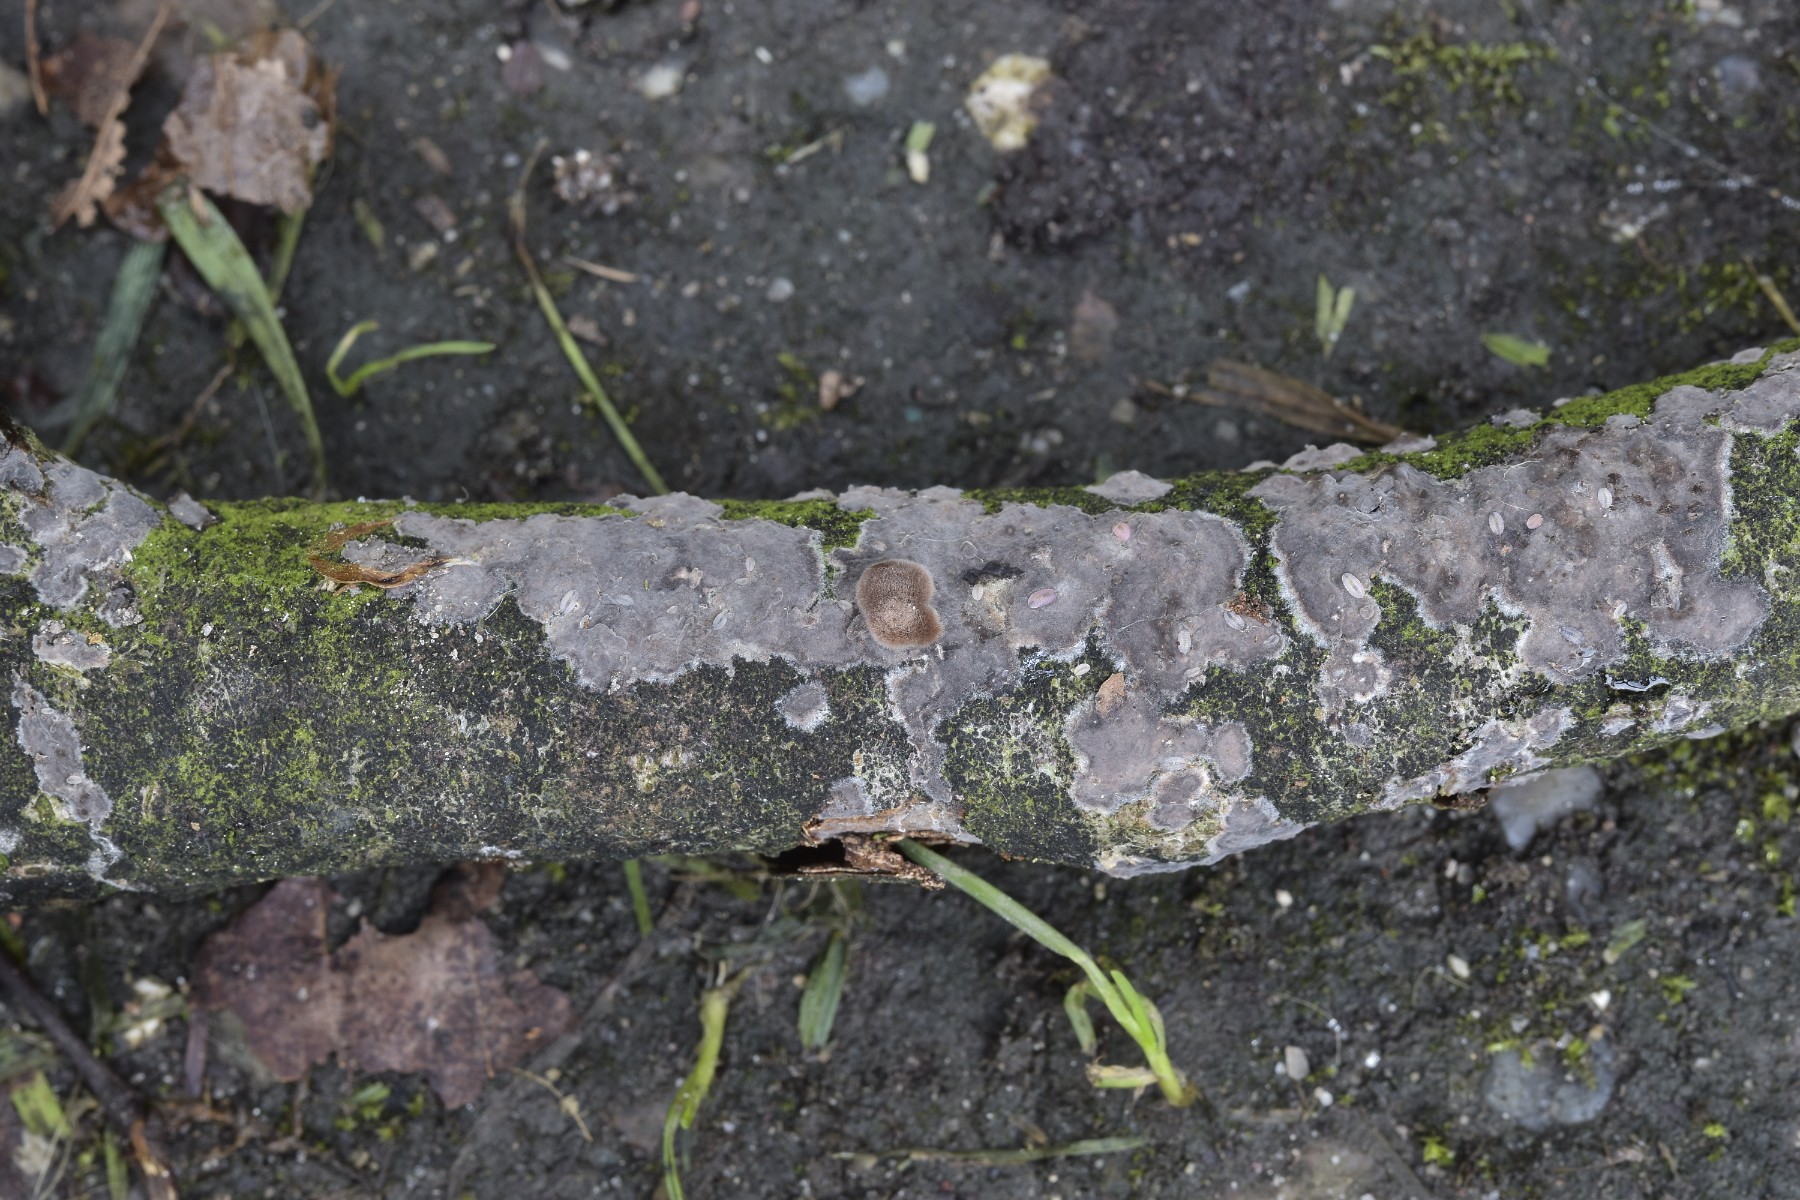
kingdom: Fungi
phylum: Basidiomycota
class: Agaricomycetes
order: Russulales
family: Peniophoraceae
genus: Peniophora
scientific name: Peniophora cinerea
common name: grå voksskind
